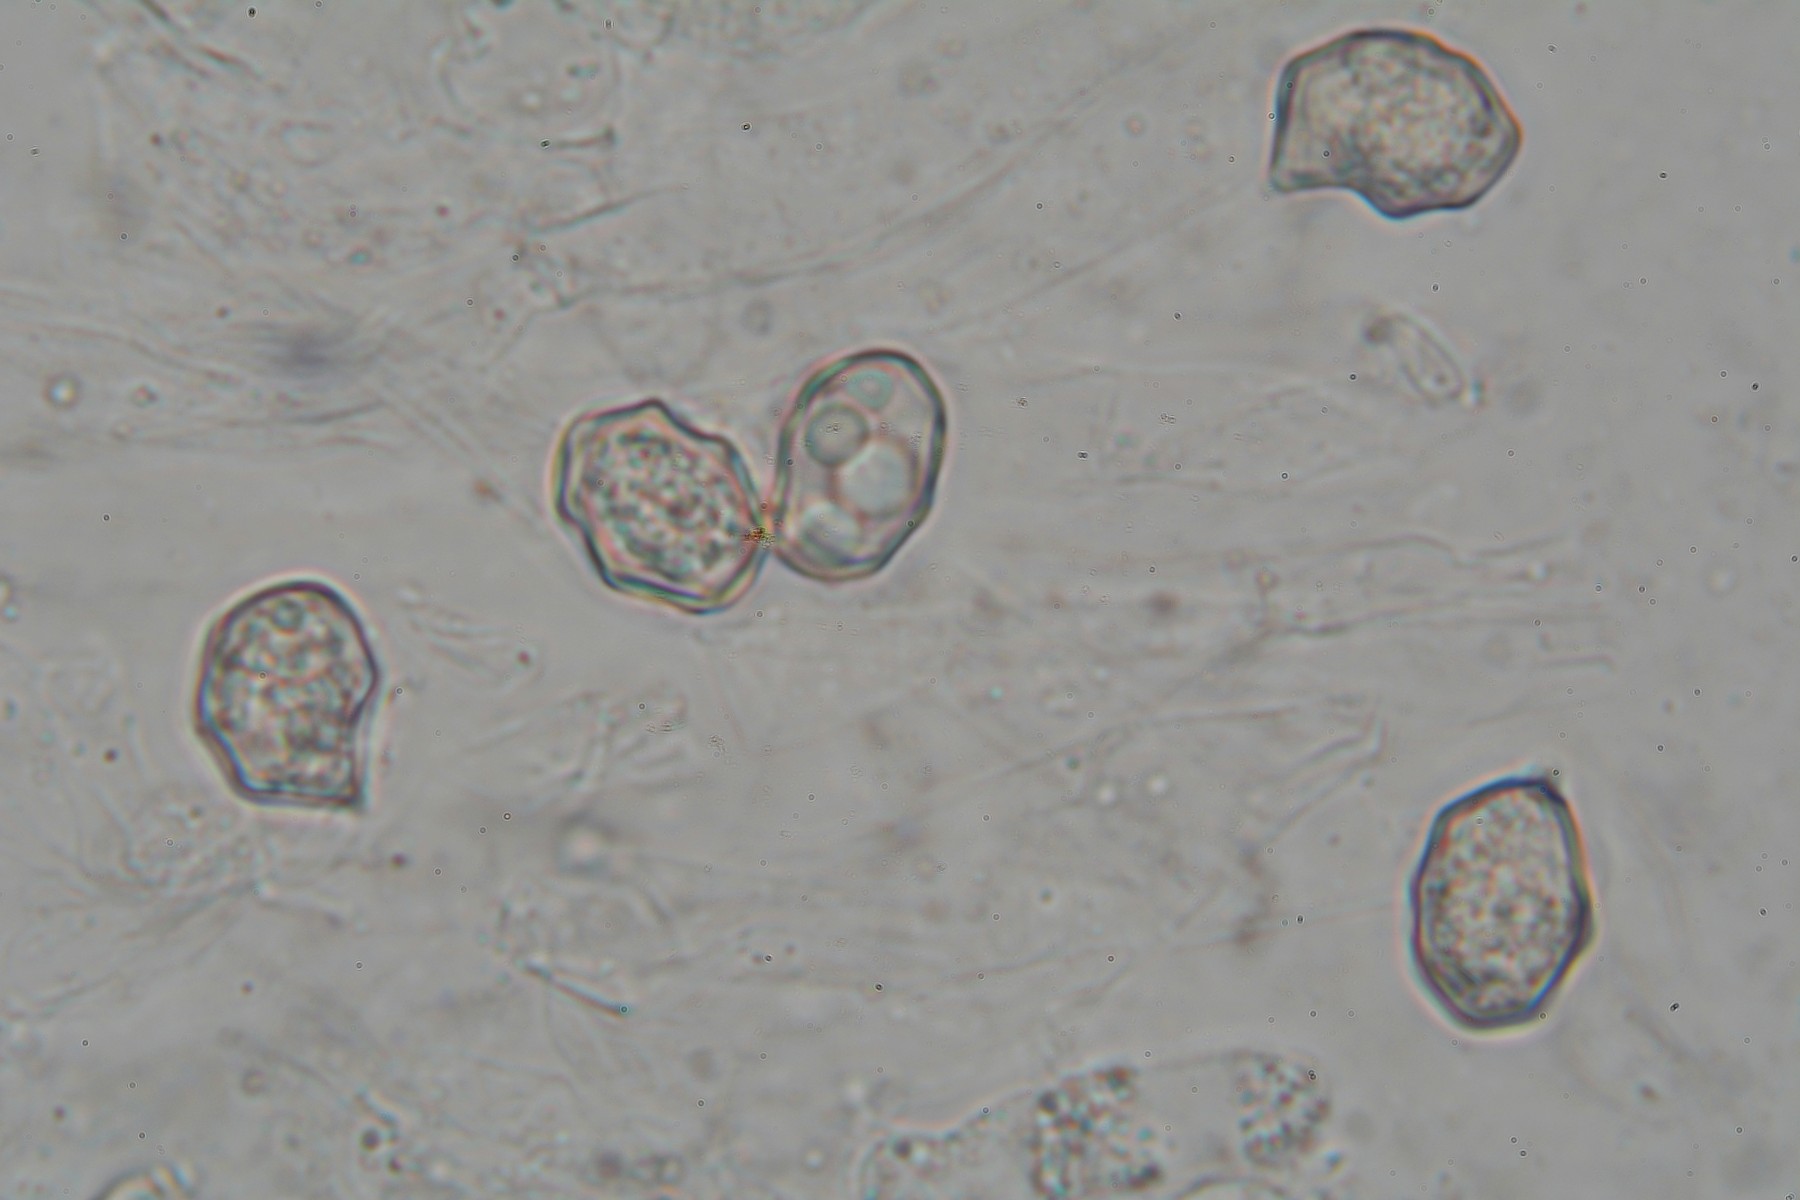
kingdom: Fungi
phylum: Basidiomycota
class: Agaricomycetes
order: Agaricales
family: Entolomataceae
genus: Entoloma
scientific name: Entoloma neglectum
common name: bleg rødblad
